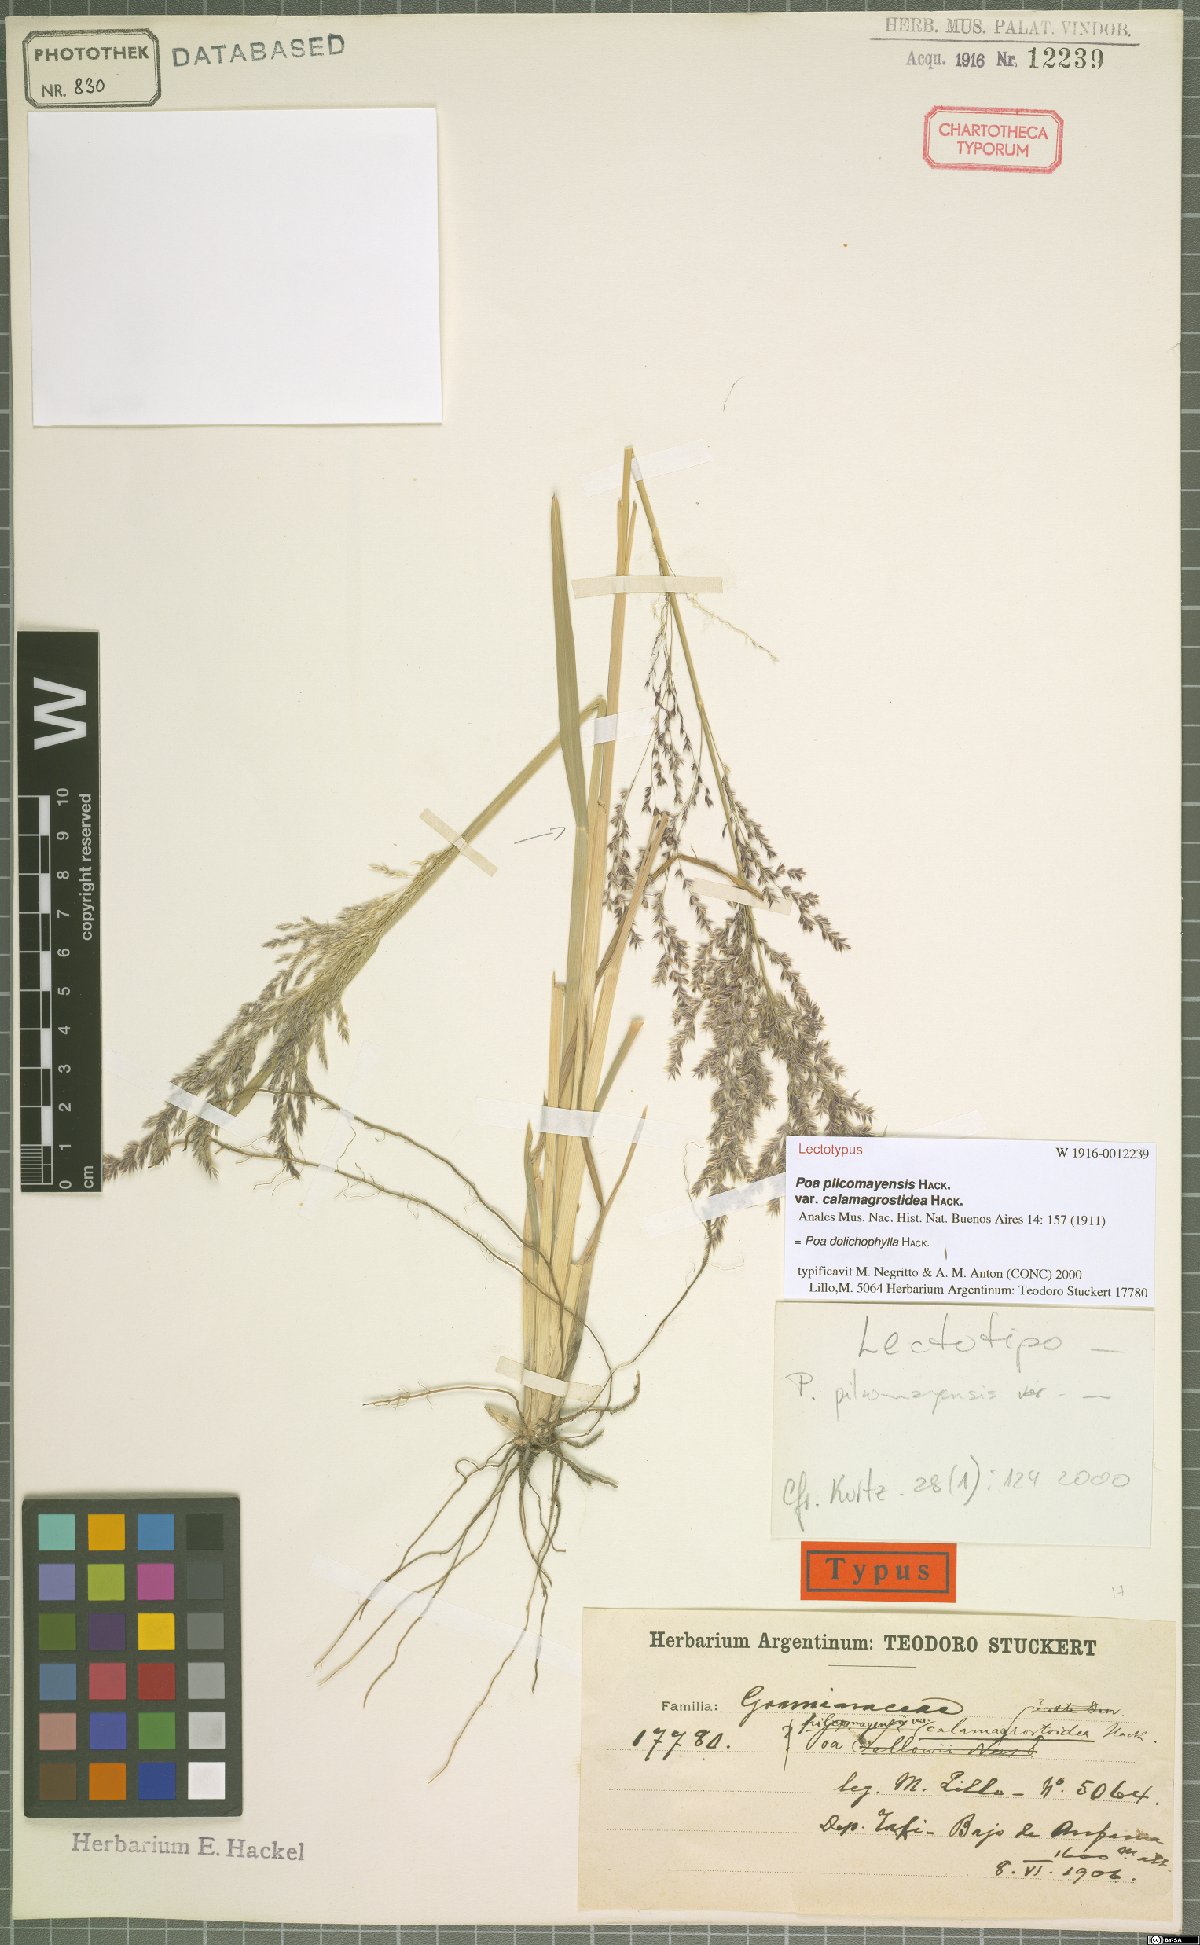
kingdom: Plantae
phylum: Tracheophyta
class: Liliopsida
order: Poales
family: Poaceae
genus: Poa
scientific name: Poa dolichophylla
